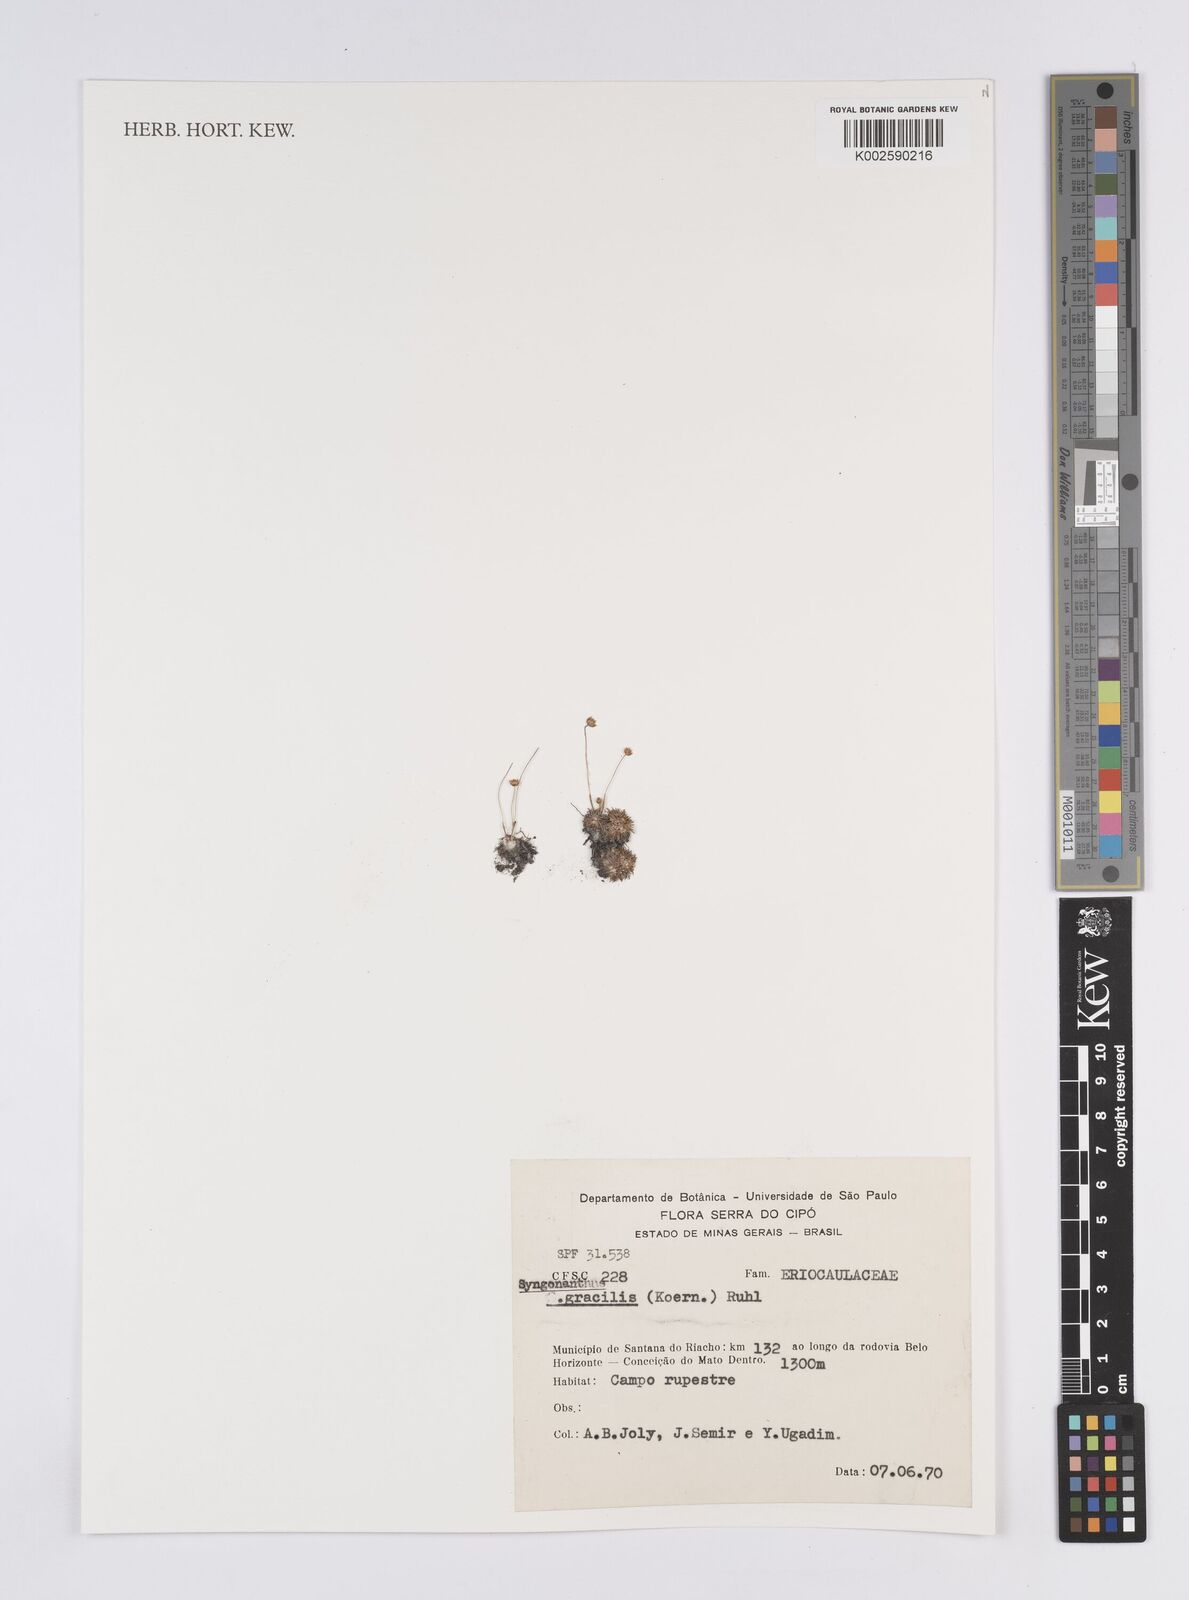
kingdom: Plantae
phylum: Tracheophyta
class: Liliopsida
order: Poales
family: Eriocaulaceae
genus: Syngonanthus
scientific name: Syngonanthus gracilis
